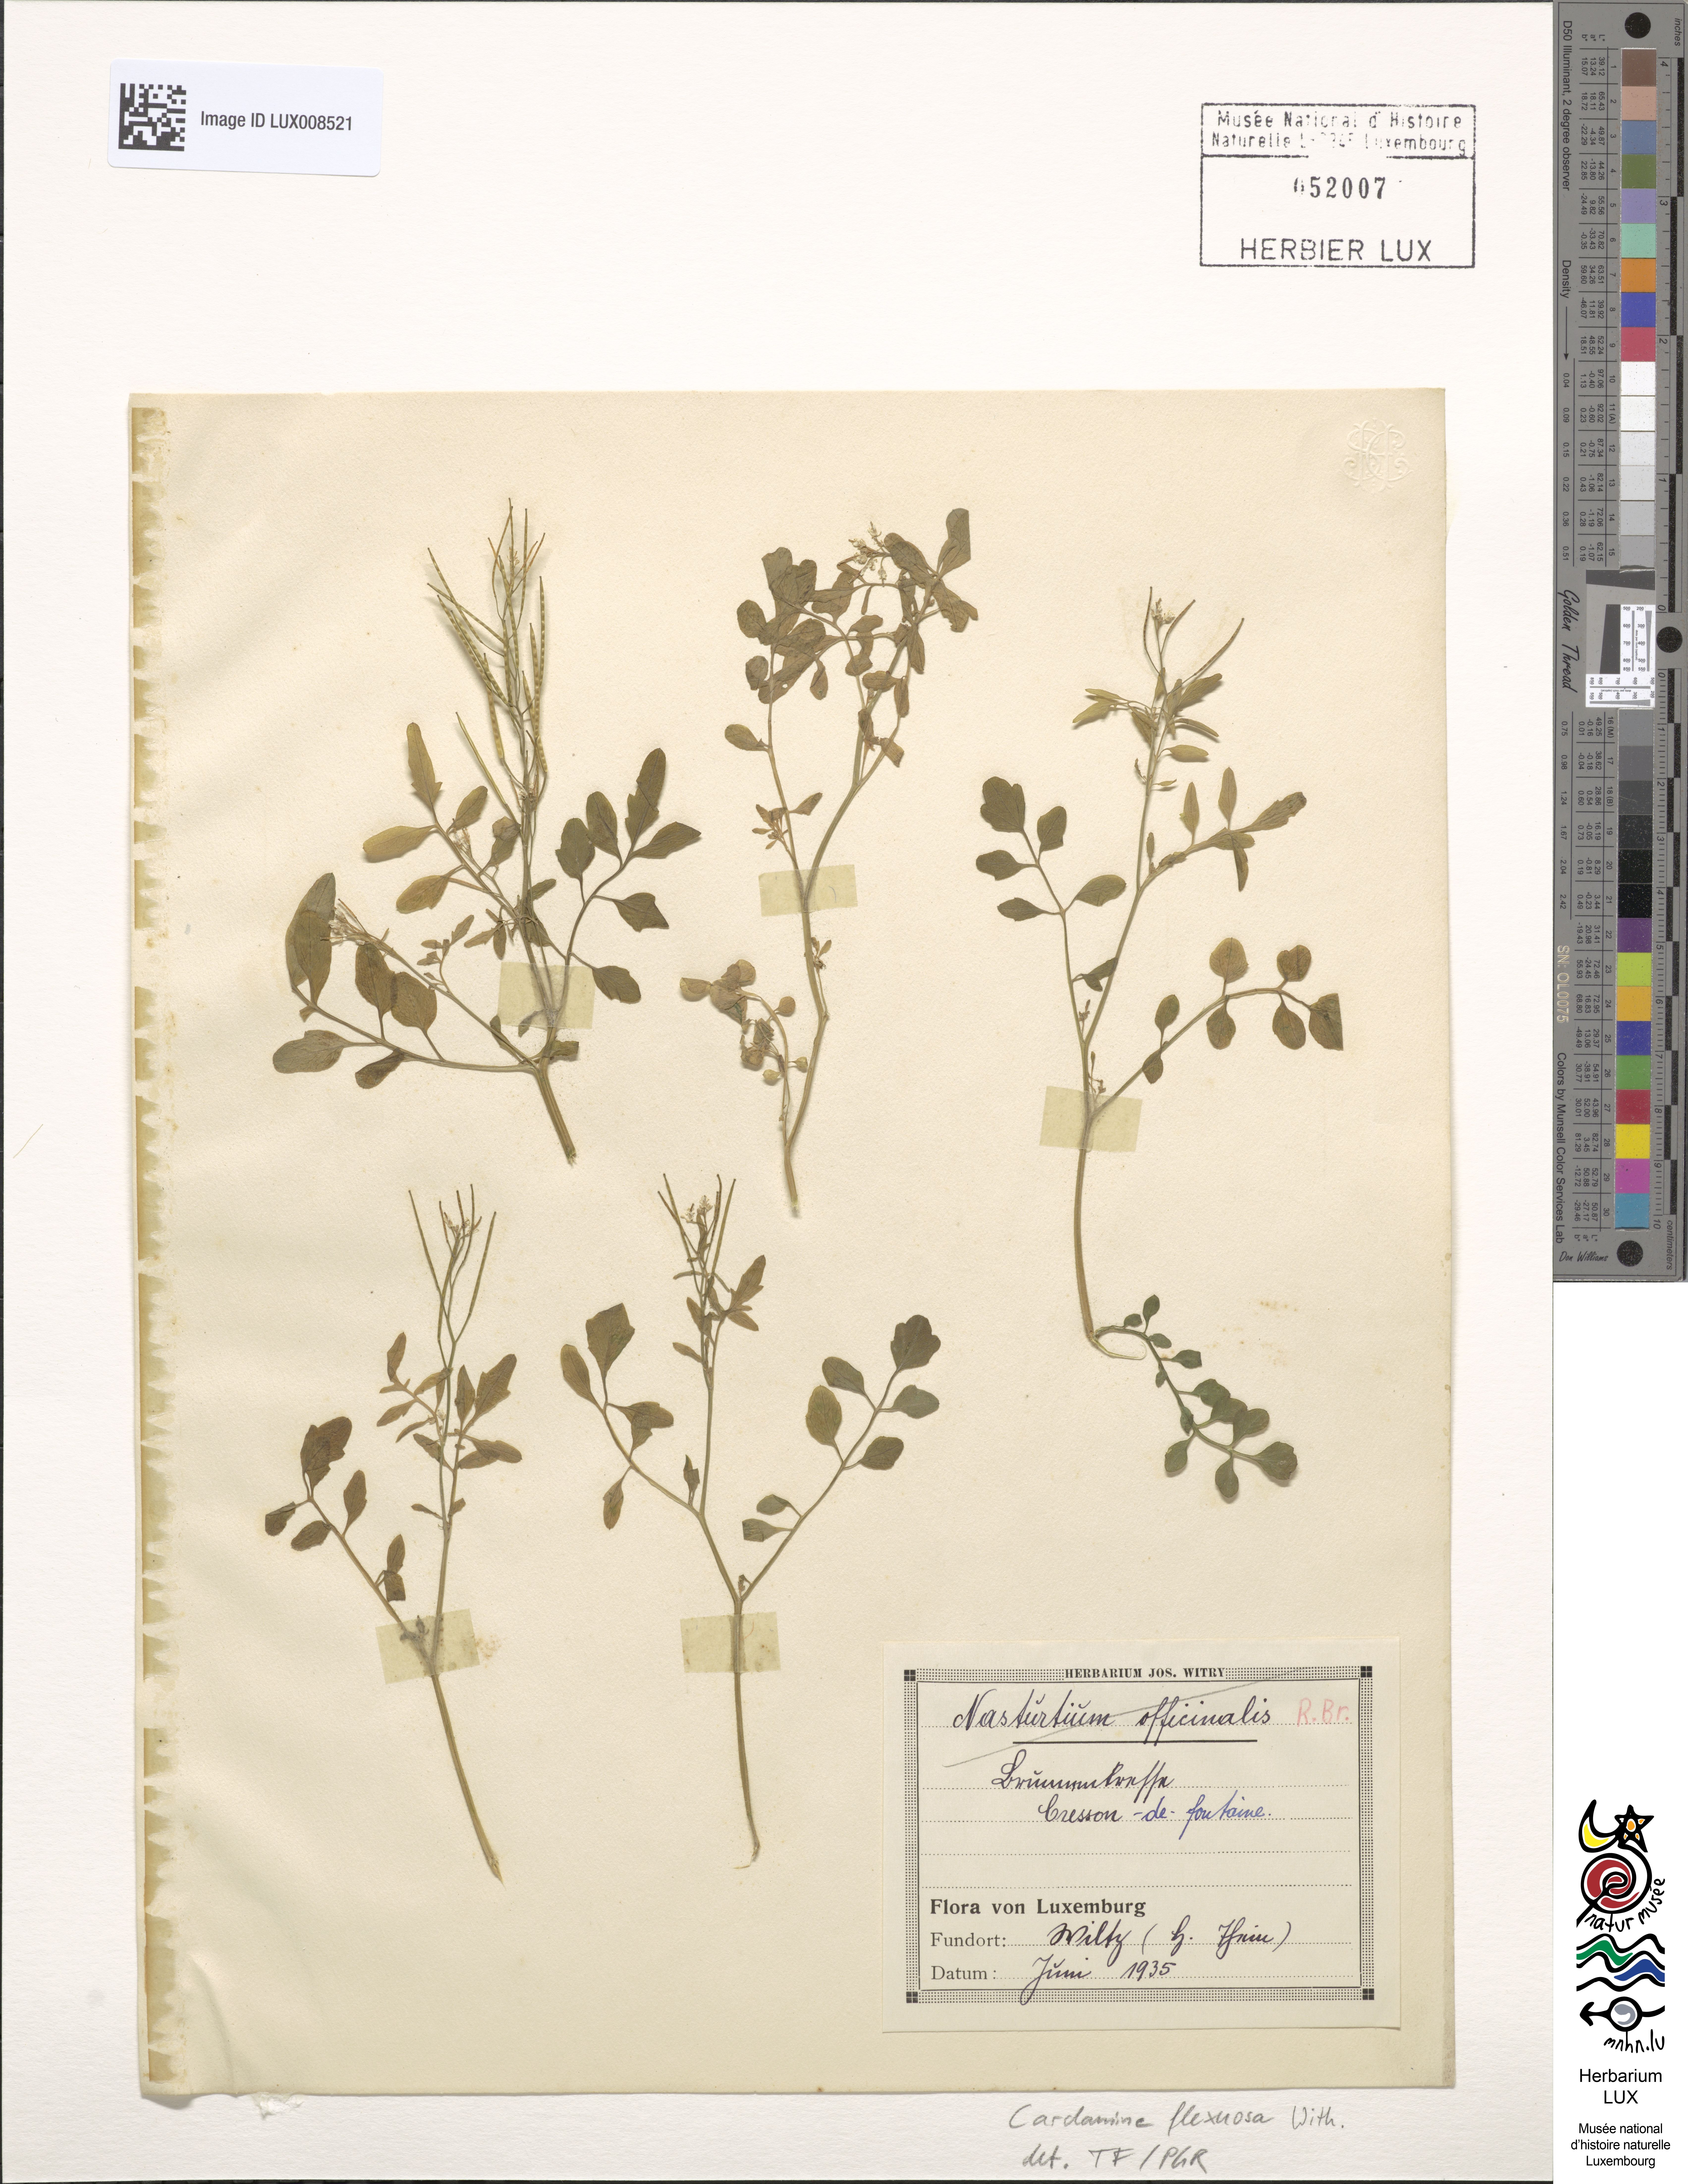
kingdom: Plantae
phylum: Tracheophyta
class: Magnoliopsida
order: Brassicales
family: Brassicaceae
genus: Cardamine
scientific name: Cardamine flexuosa
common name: Woodland bittercress
